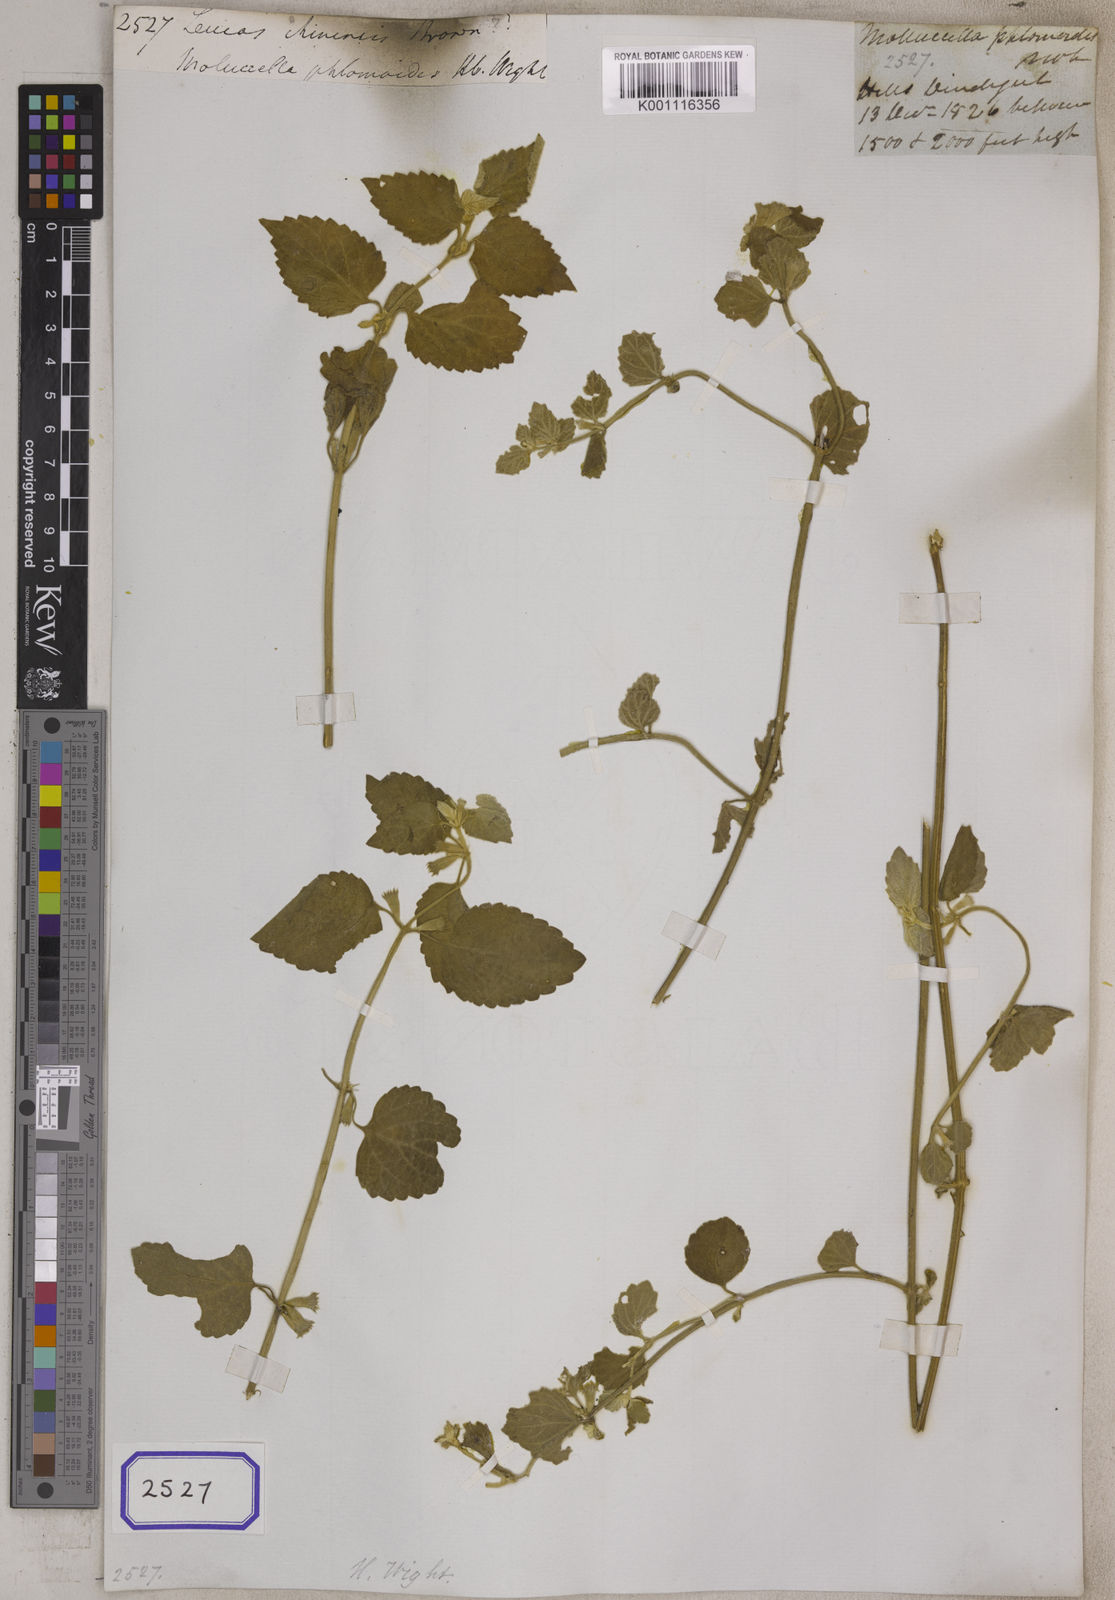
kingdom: Plantae
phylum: Tracheophyta
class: Magnoliopsida
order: Lamiales
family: Lamiaceae
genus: Leucas
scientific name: Leucas
